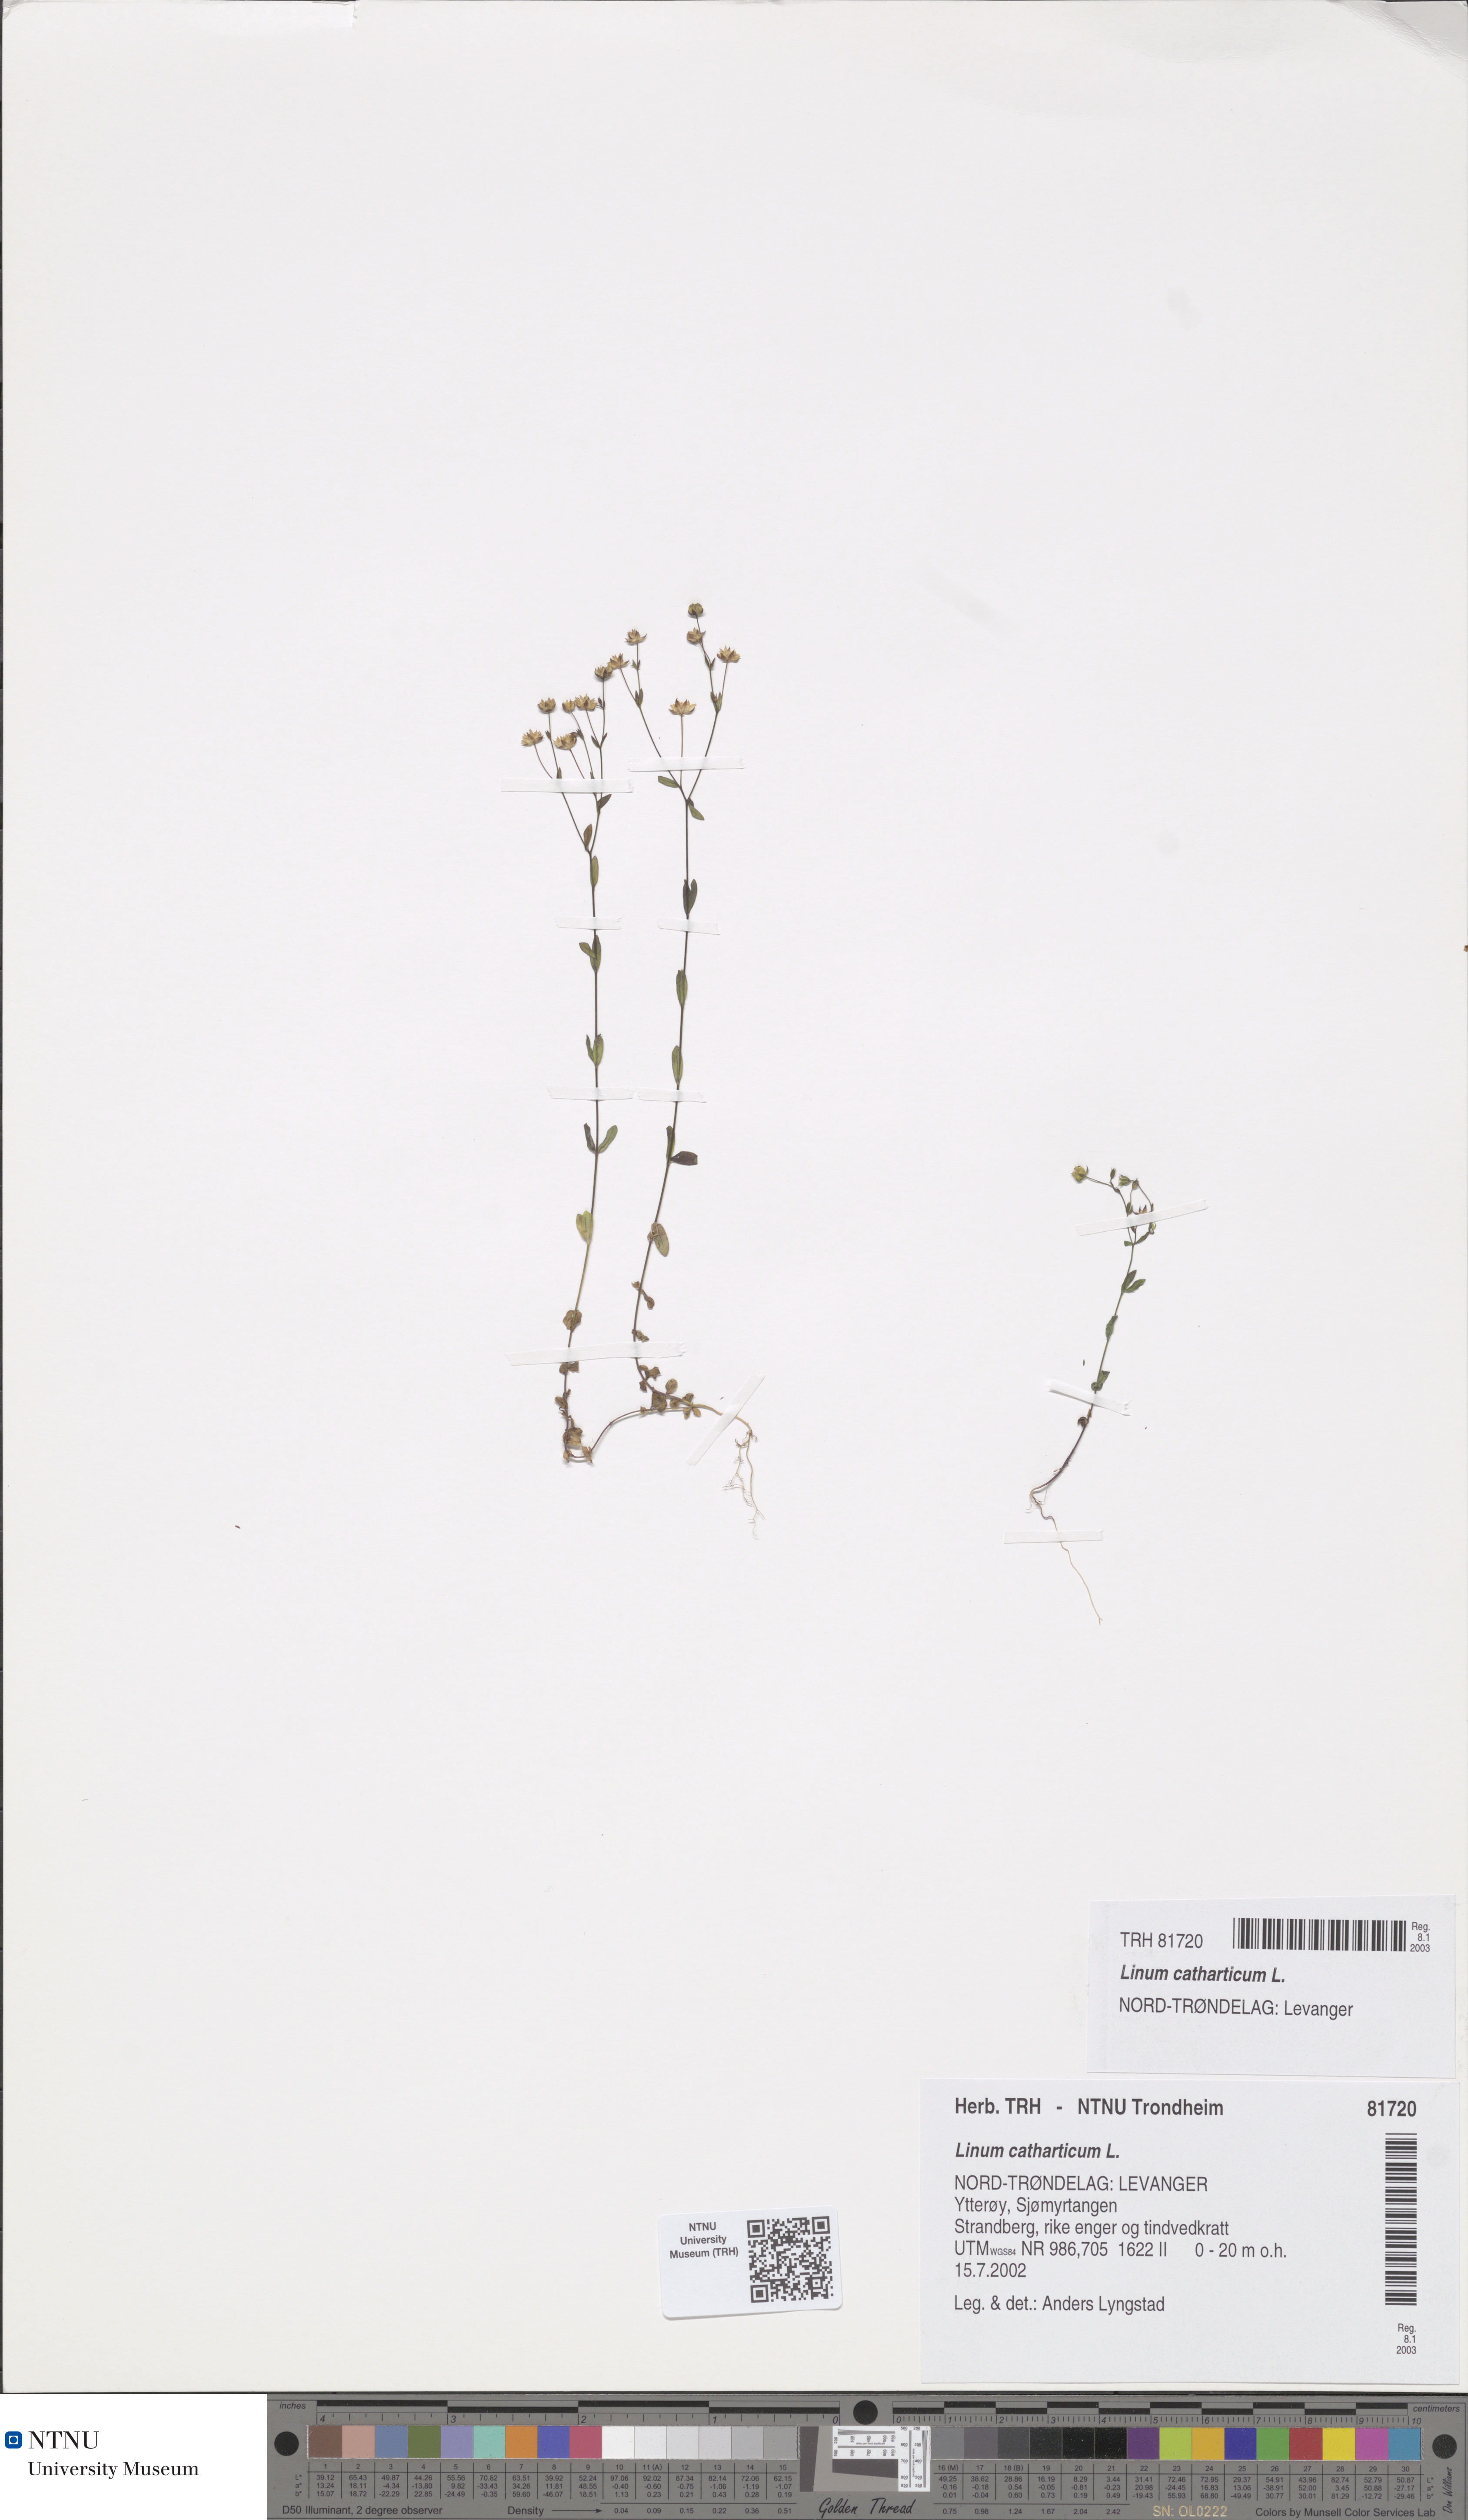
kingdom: Plantae
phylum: Tracheophyta
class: Magnoliopsida
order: Malpighiales
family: Linaceae
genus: Linum
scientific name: Linum catharticum
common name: Fairy flax
